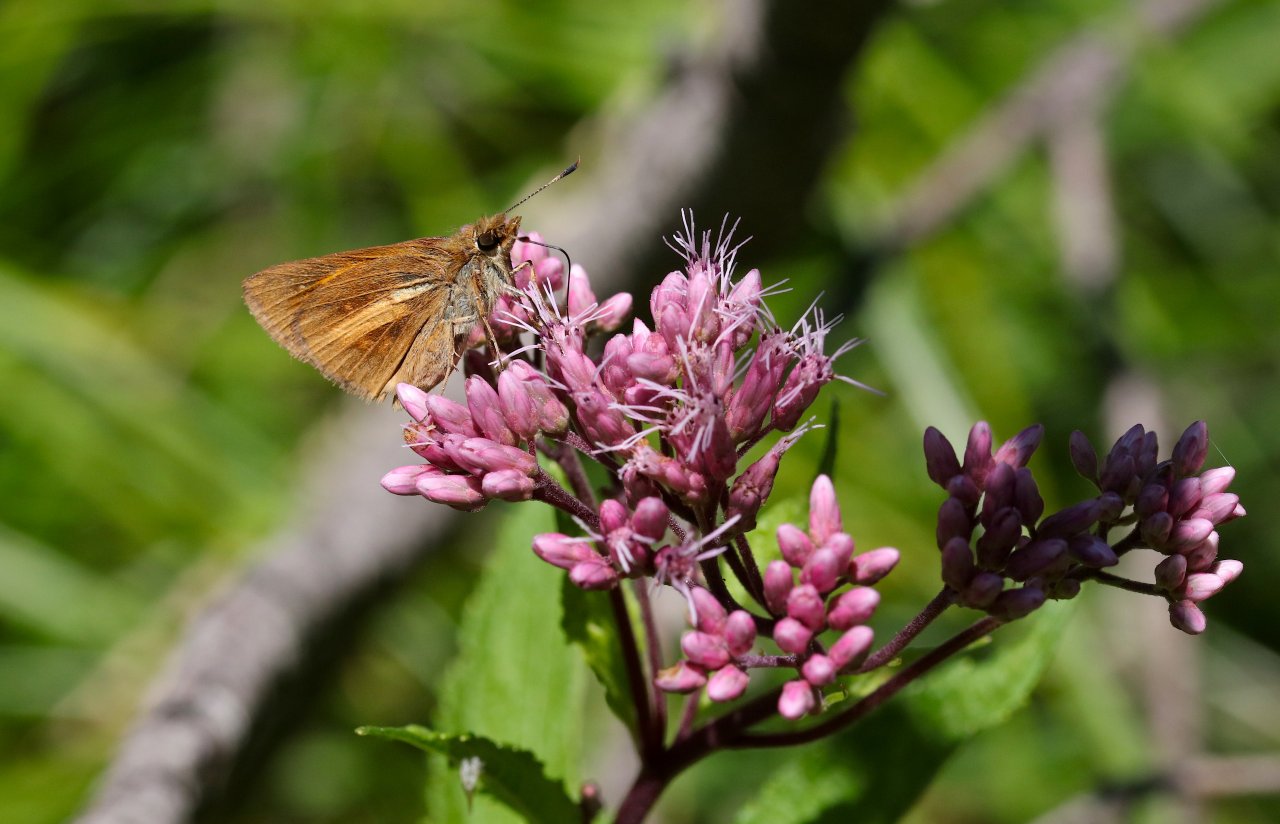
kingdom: Animalia
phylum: Arthropoda
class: Insecta
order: Lepidoptera
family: Hesperiidae
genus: Poanes
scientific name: Poanes viator
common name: Broad-winged Skipper
